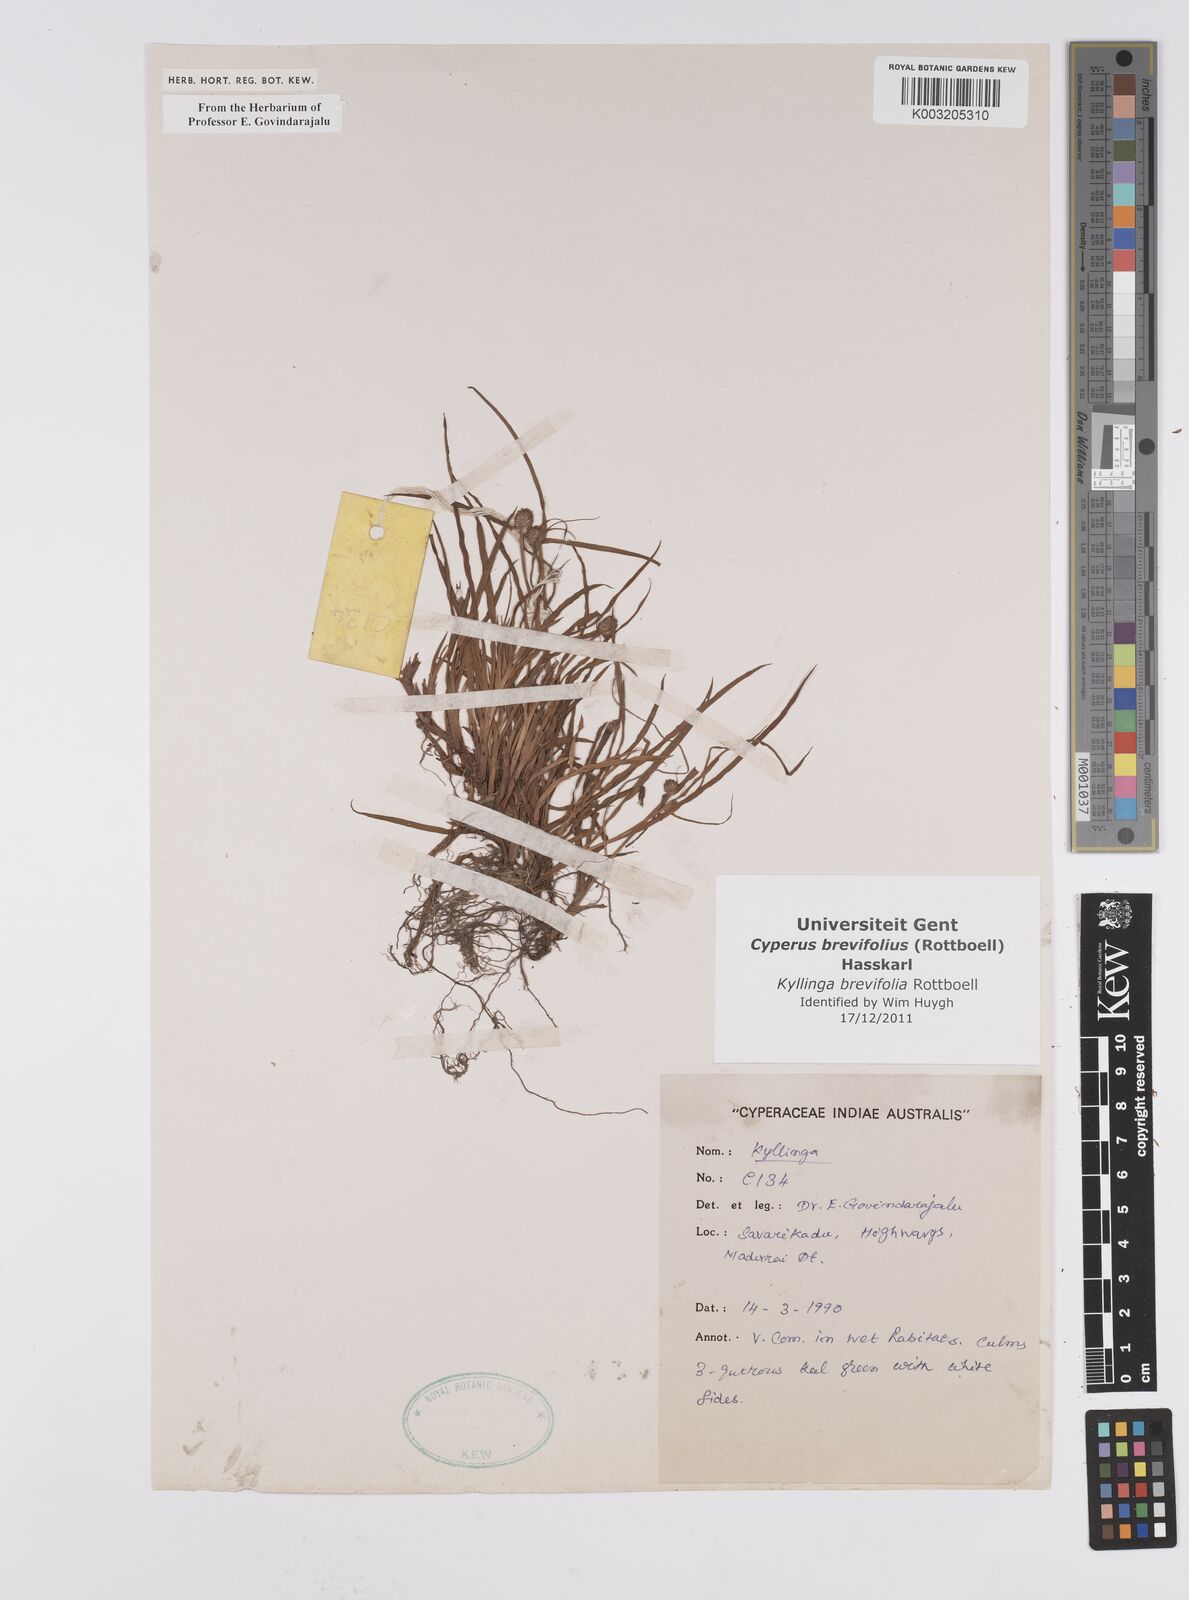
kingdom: Plantae
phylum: Tracheophyta
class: Liliopsida
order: Poales
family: Cyperaceae
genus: Cyperus
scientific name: Cyperus brevifolius
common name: Globe kyllinga
